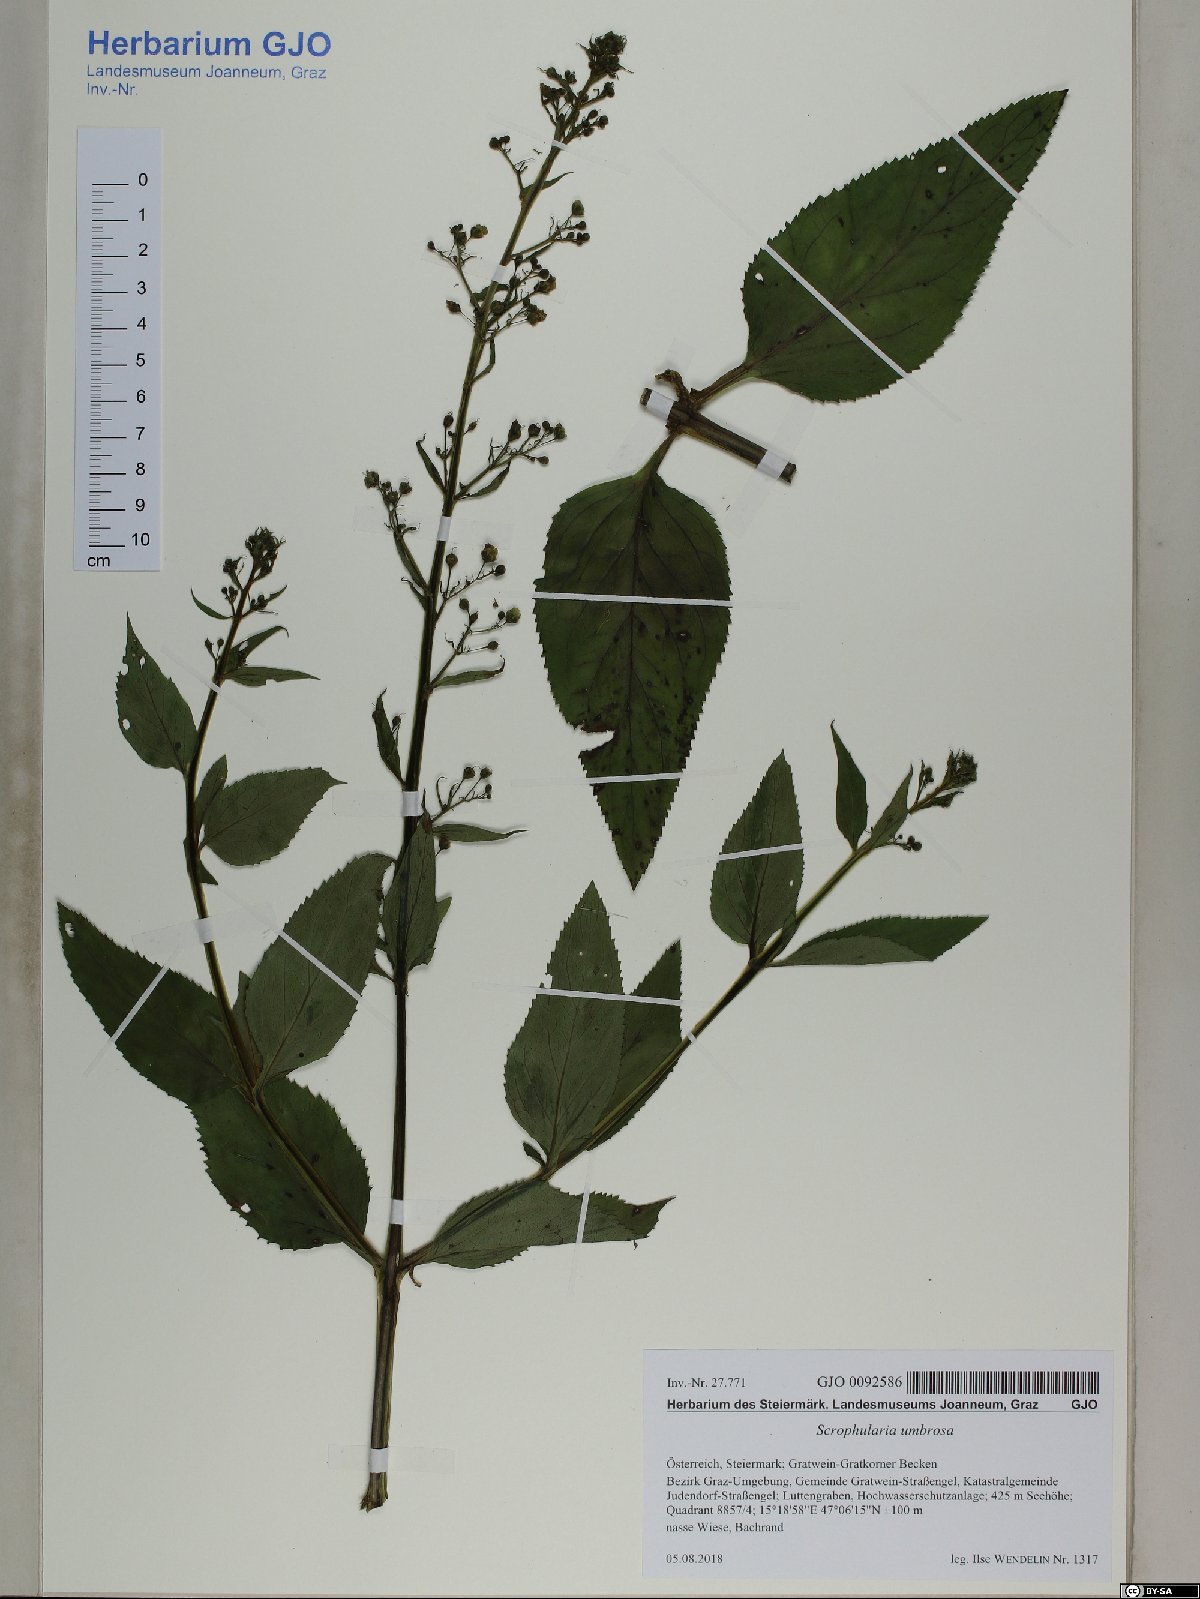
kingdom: Plantae
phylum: Tracheophyta
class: Magnoliopsida
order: Lamiales
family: Scrophulariaceae
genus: Scrophularia
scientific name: Scrophularia umbrosa
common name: Green figwort
